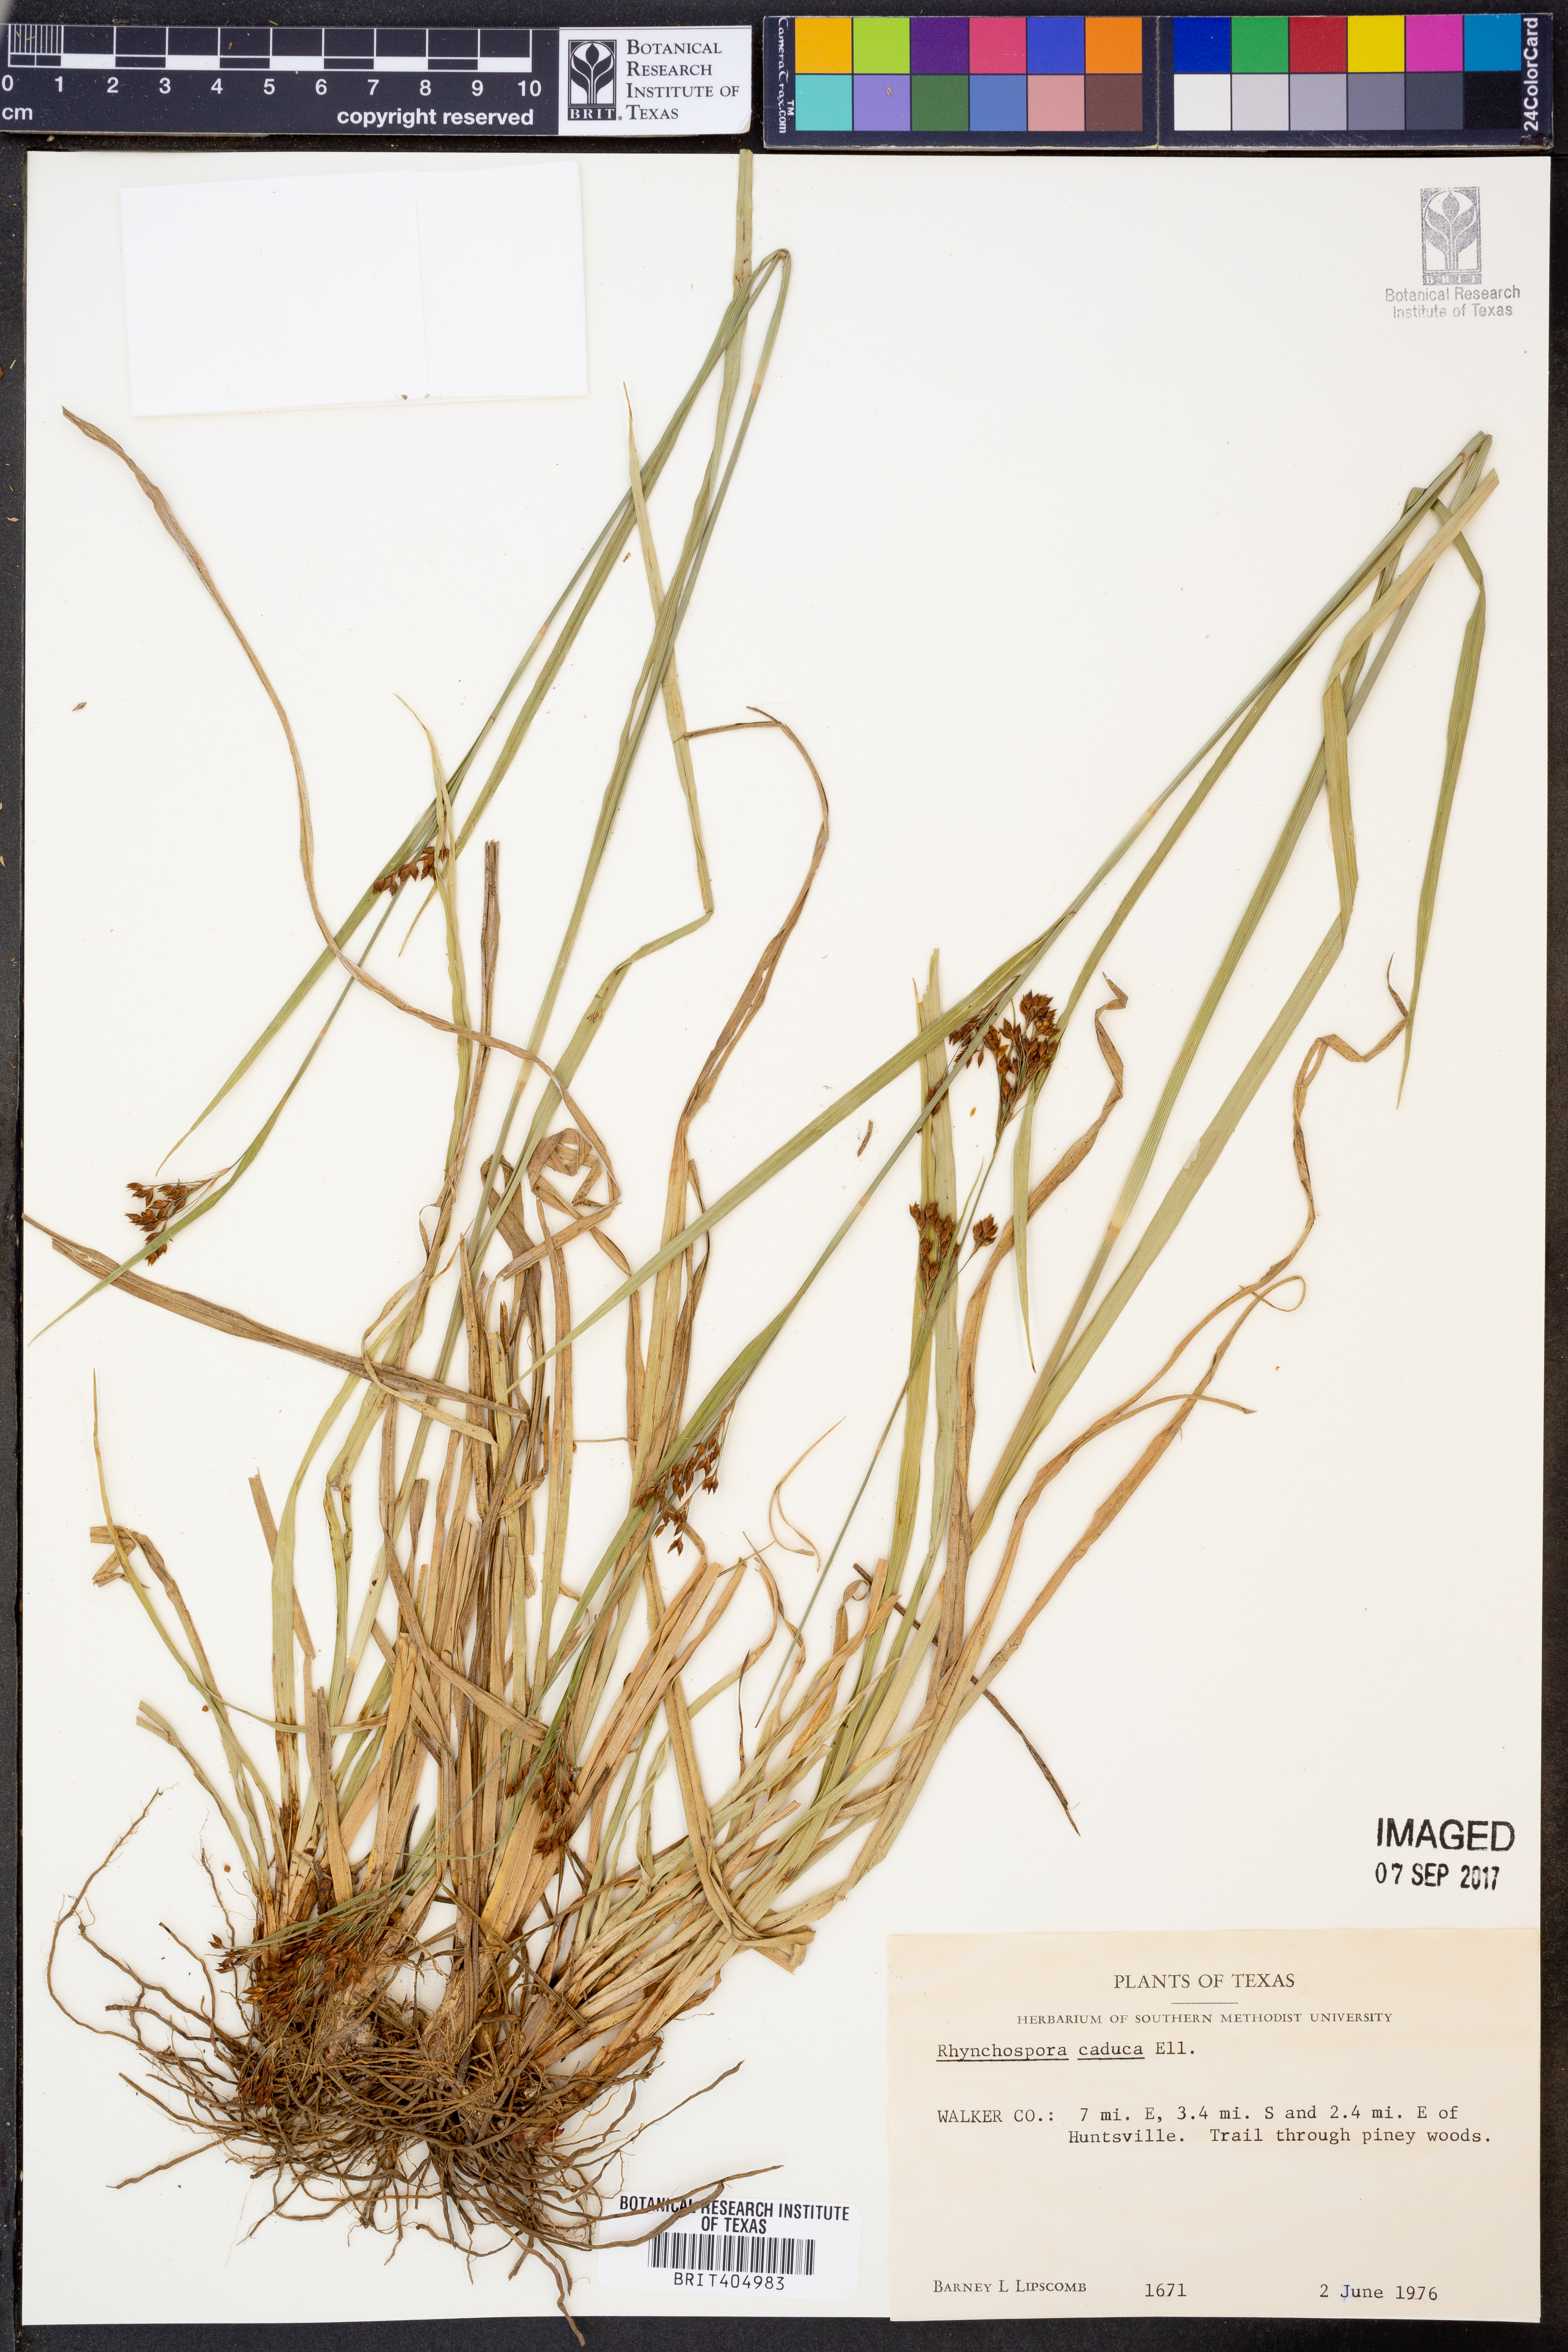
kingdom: Plantae
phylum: Tracheophyta
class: Liliopsida
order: Poales
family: Cyperaceae
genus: Rhynchospora
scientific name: Rhynchospora caduca
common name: Anglestem beaksedge
